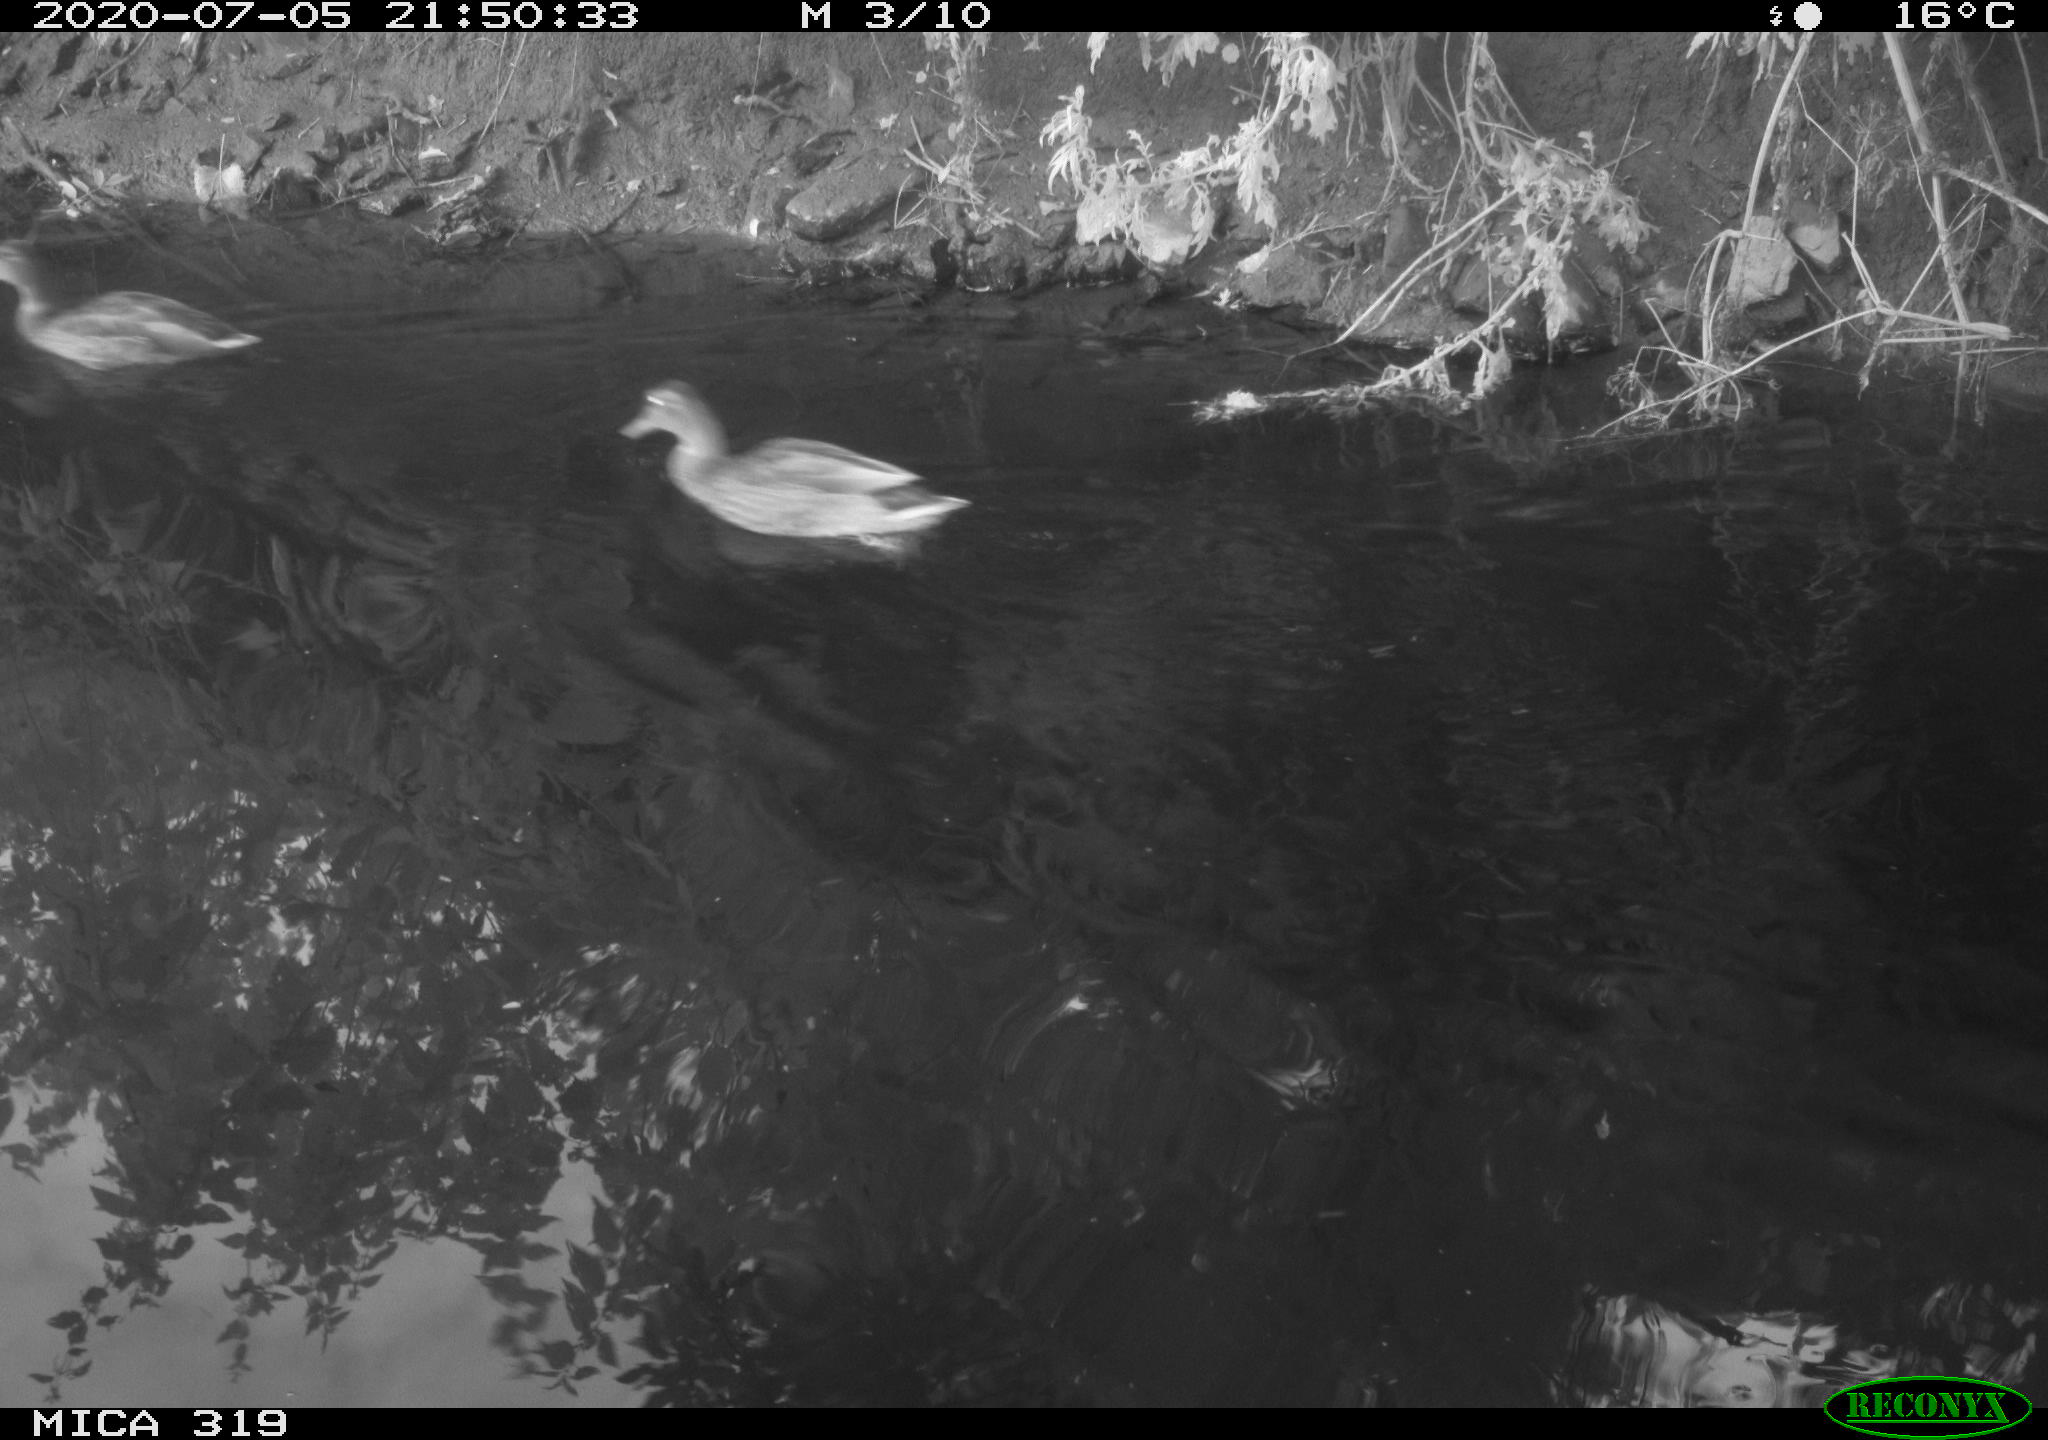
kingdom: Animalia
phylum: Chordata
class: Aves
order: Anseriformes
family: Anatidae
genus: Anas
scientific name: Anas platyrhynchos
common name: Mallard
